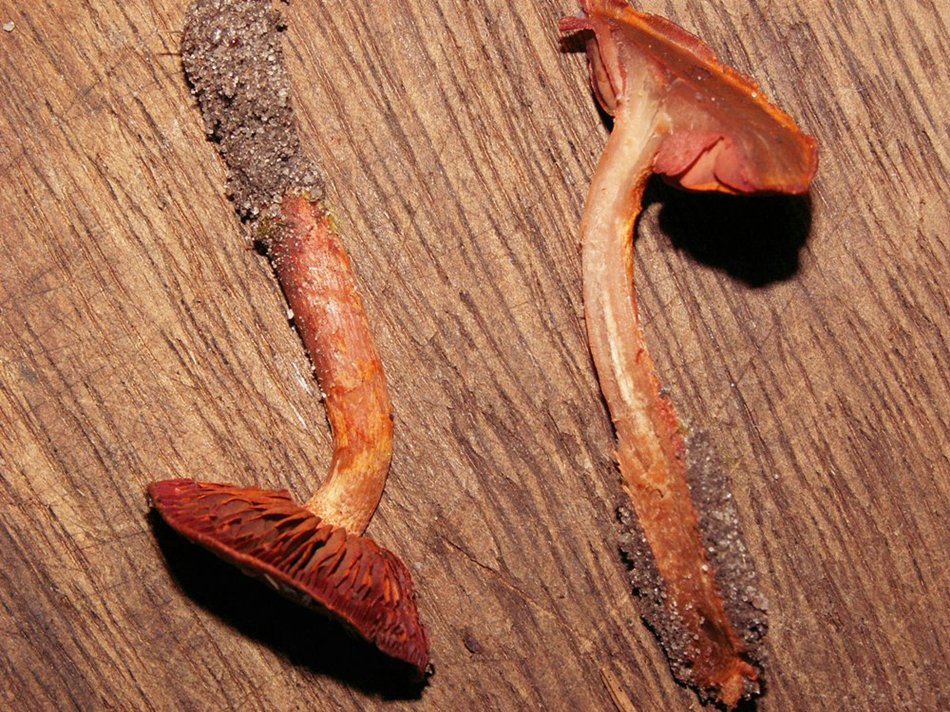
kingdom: Fungi
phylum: Basidiomycota
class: Agaricomycetes
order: Agaricales
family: Cortinariaceae
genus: Cortinarius
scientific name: Cortinarius sanguineus
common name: Bloodred webcap
